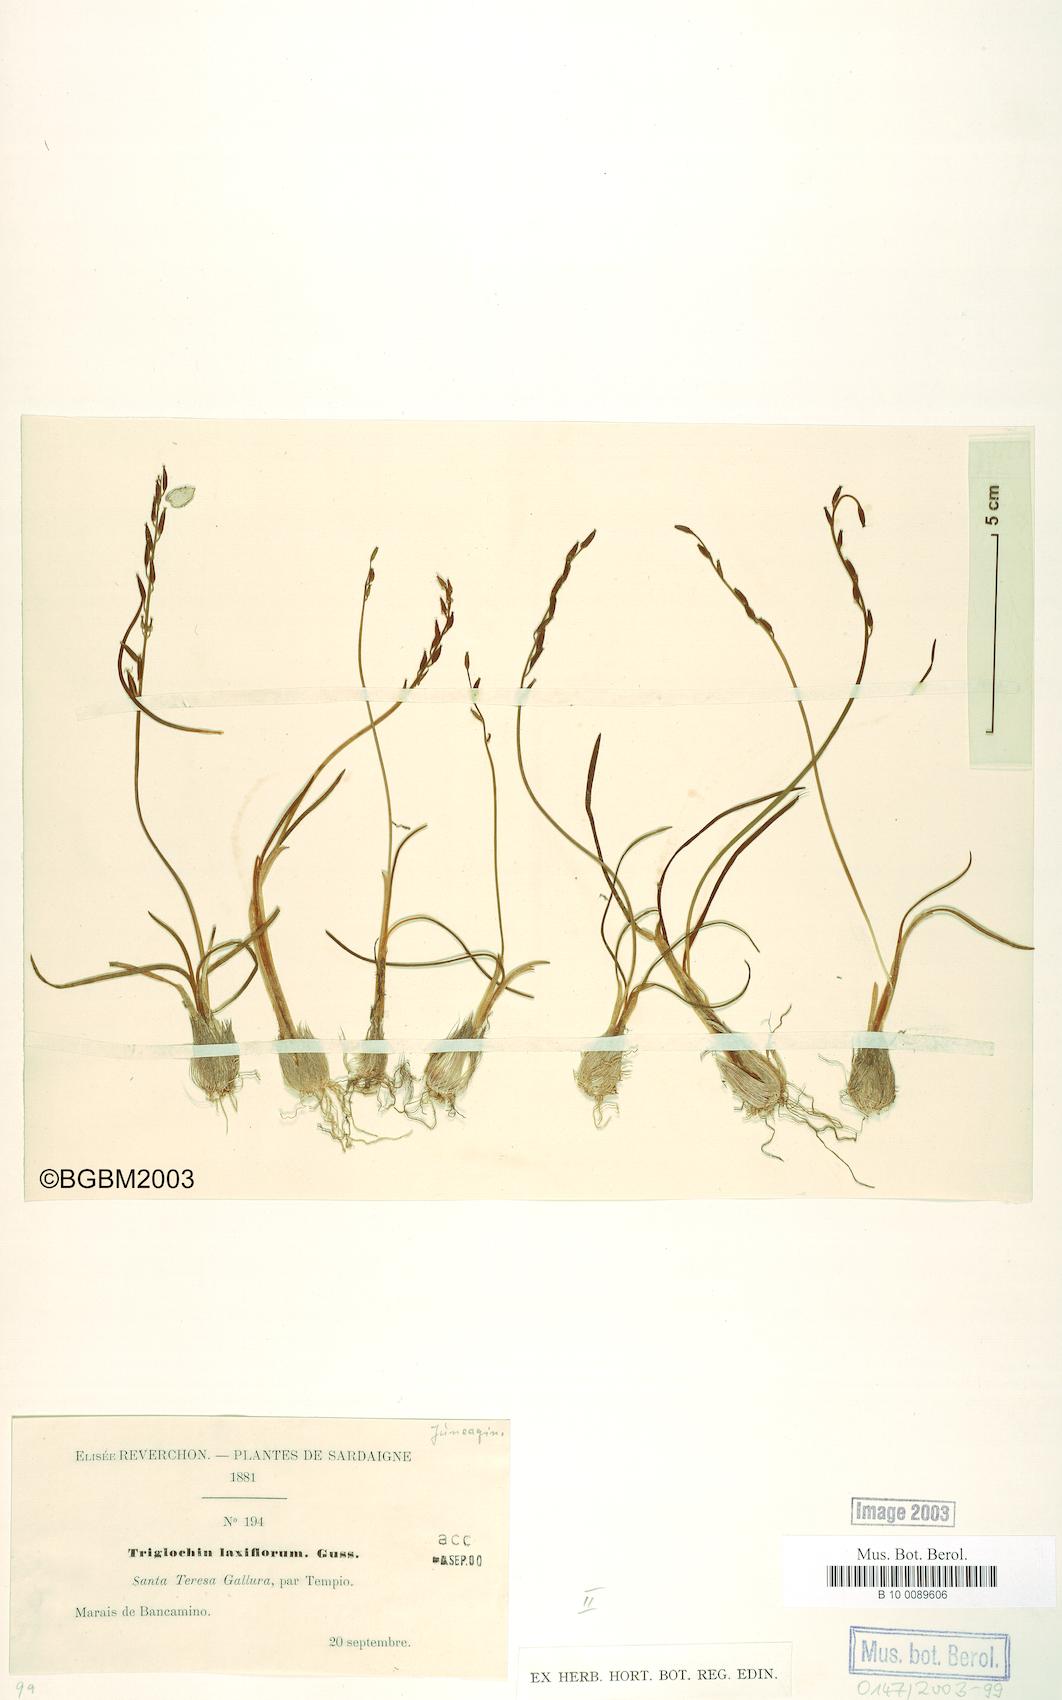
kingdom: Plantae
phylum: Tracheophyta
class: Liliopsida
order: Alismatales
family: Juncaginaceae
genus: Triglochin
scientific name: Triglochin laxiflora
